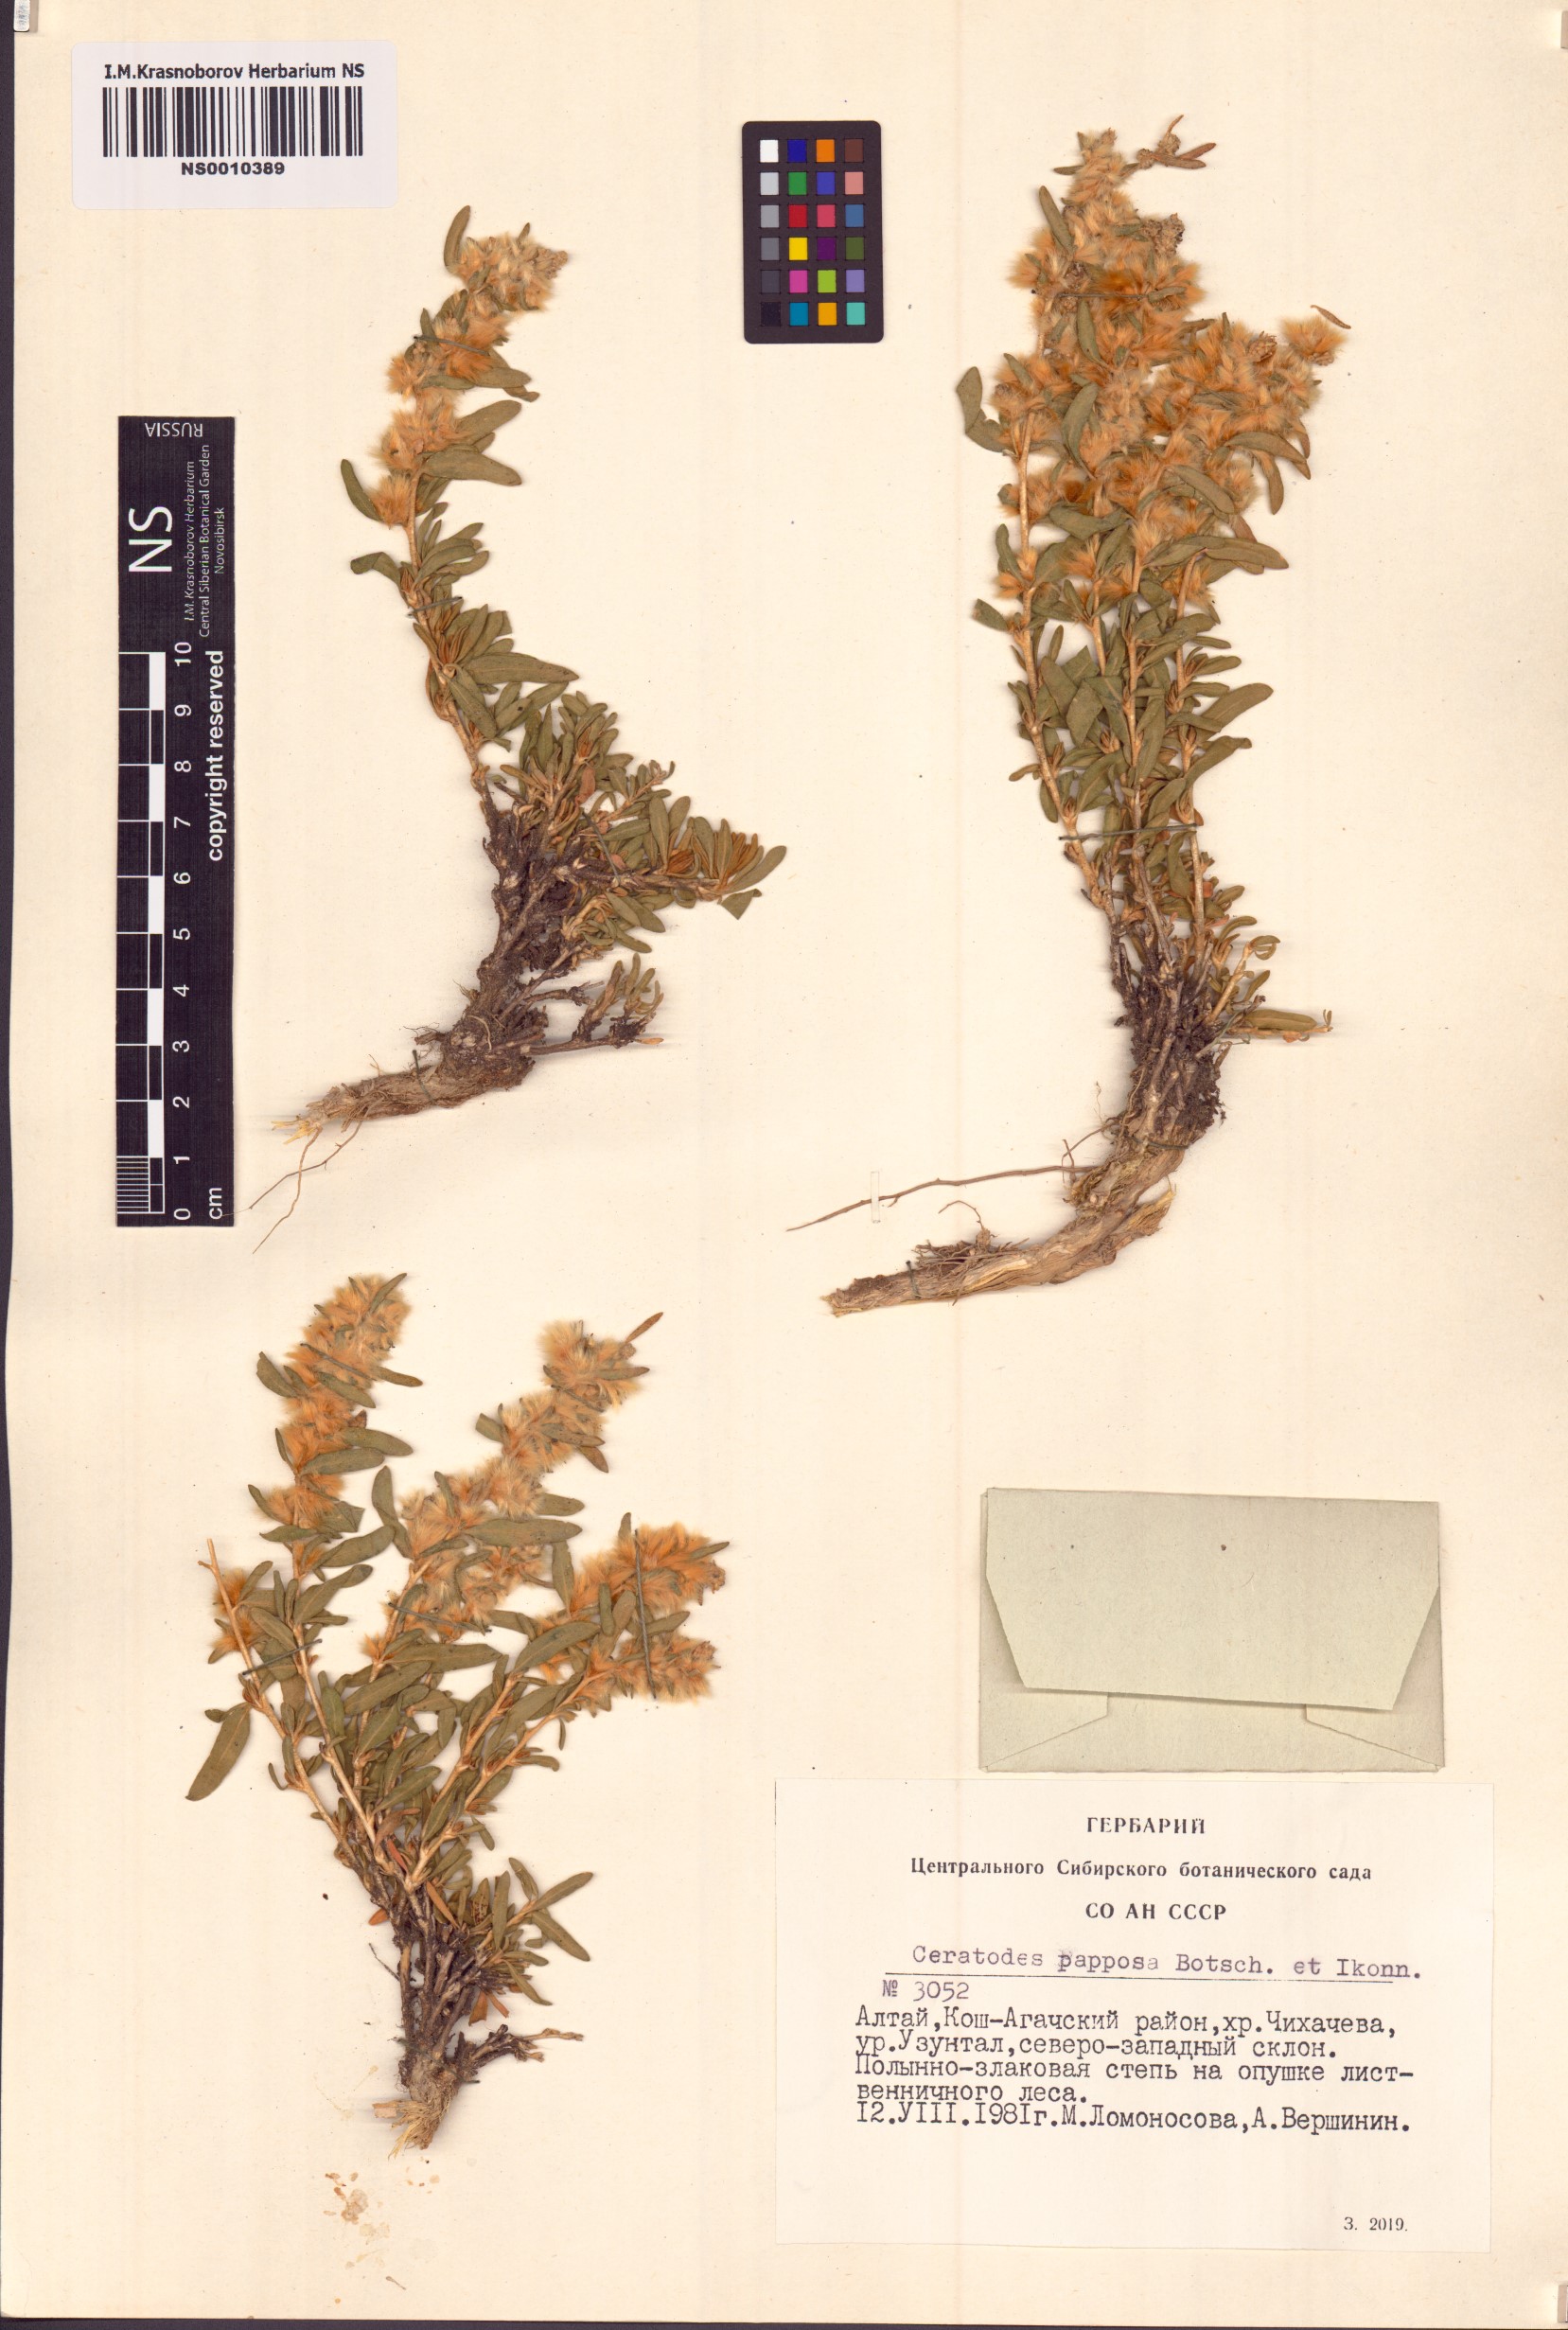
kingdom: Plantae
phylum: Tracheophyta
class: Magnoliopsida
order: Caryophyllales
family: Amaranthaceae
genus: Krascheninnikovia
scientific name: Krascheninnikovia ceratoides
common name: Pamirian winterfat
